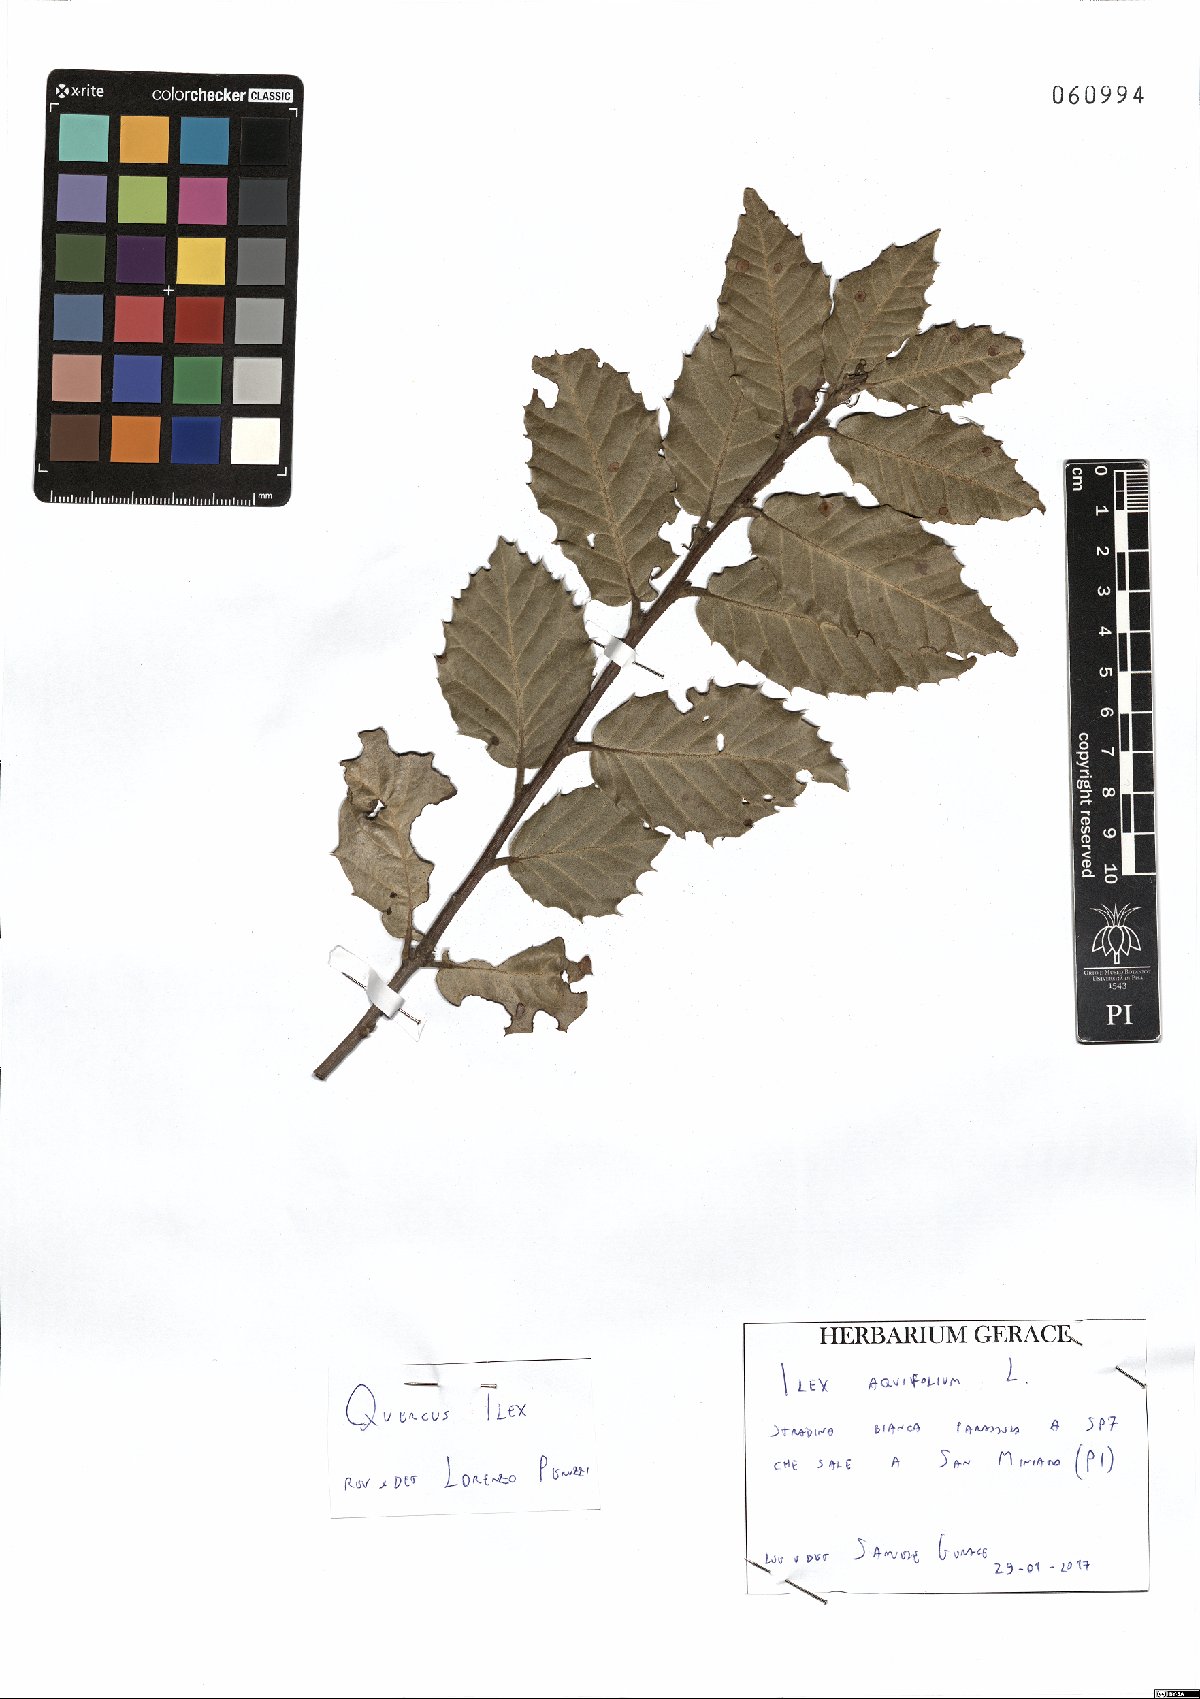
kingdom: Plantae
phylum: Tracheophyta
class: Magnoliopsida
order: Fagales
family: Fagaceae
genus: Quercus
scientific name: Quercus ilex
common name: Evergreen oak
